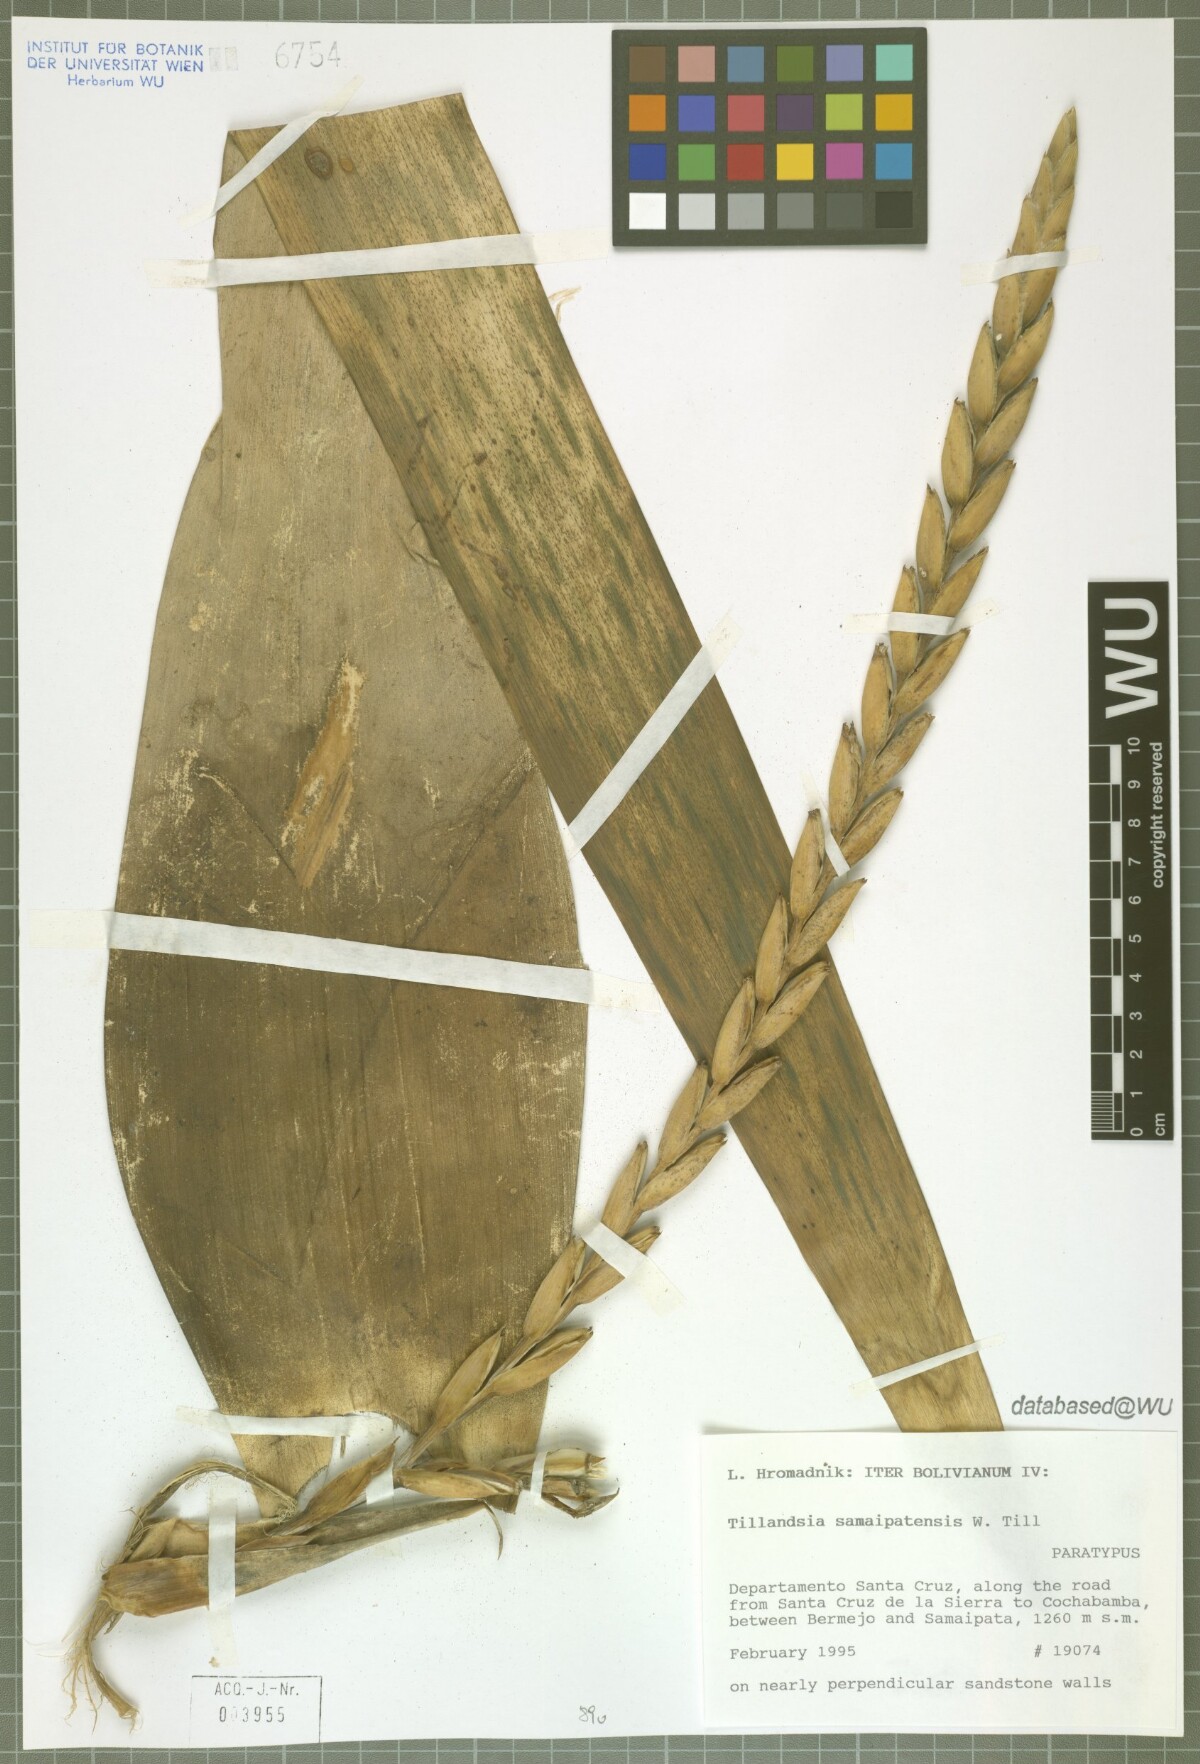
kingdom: Plantae
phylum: Tracheophyta
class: Liliopsida
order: Poales
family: Bromeliaceae
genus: Tillandsia
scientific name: Tillandsia samaipatensis
